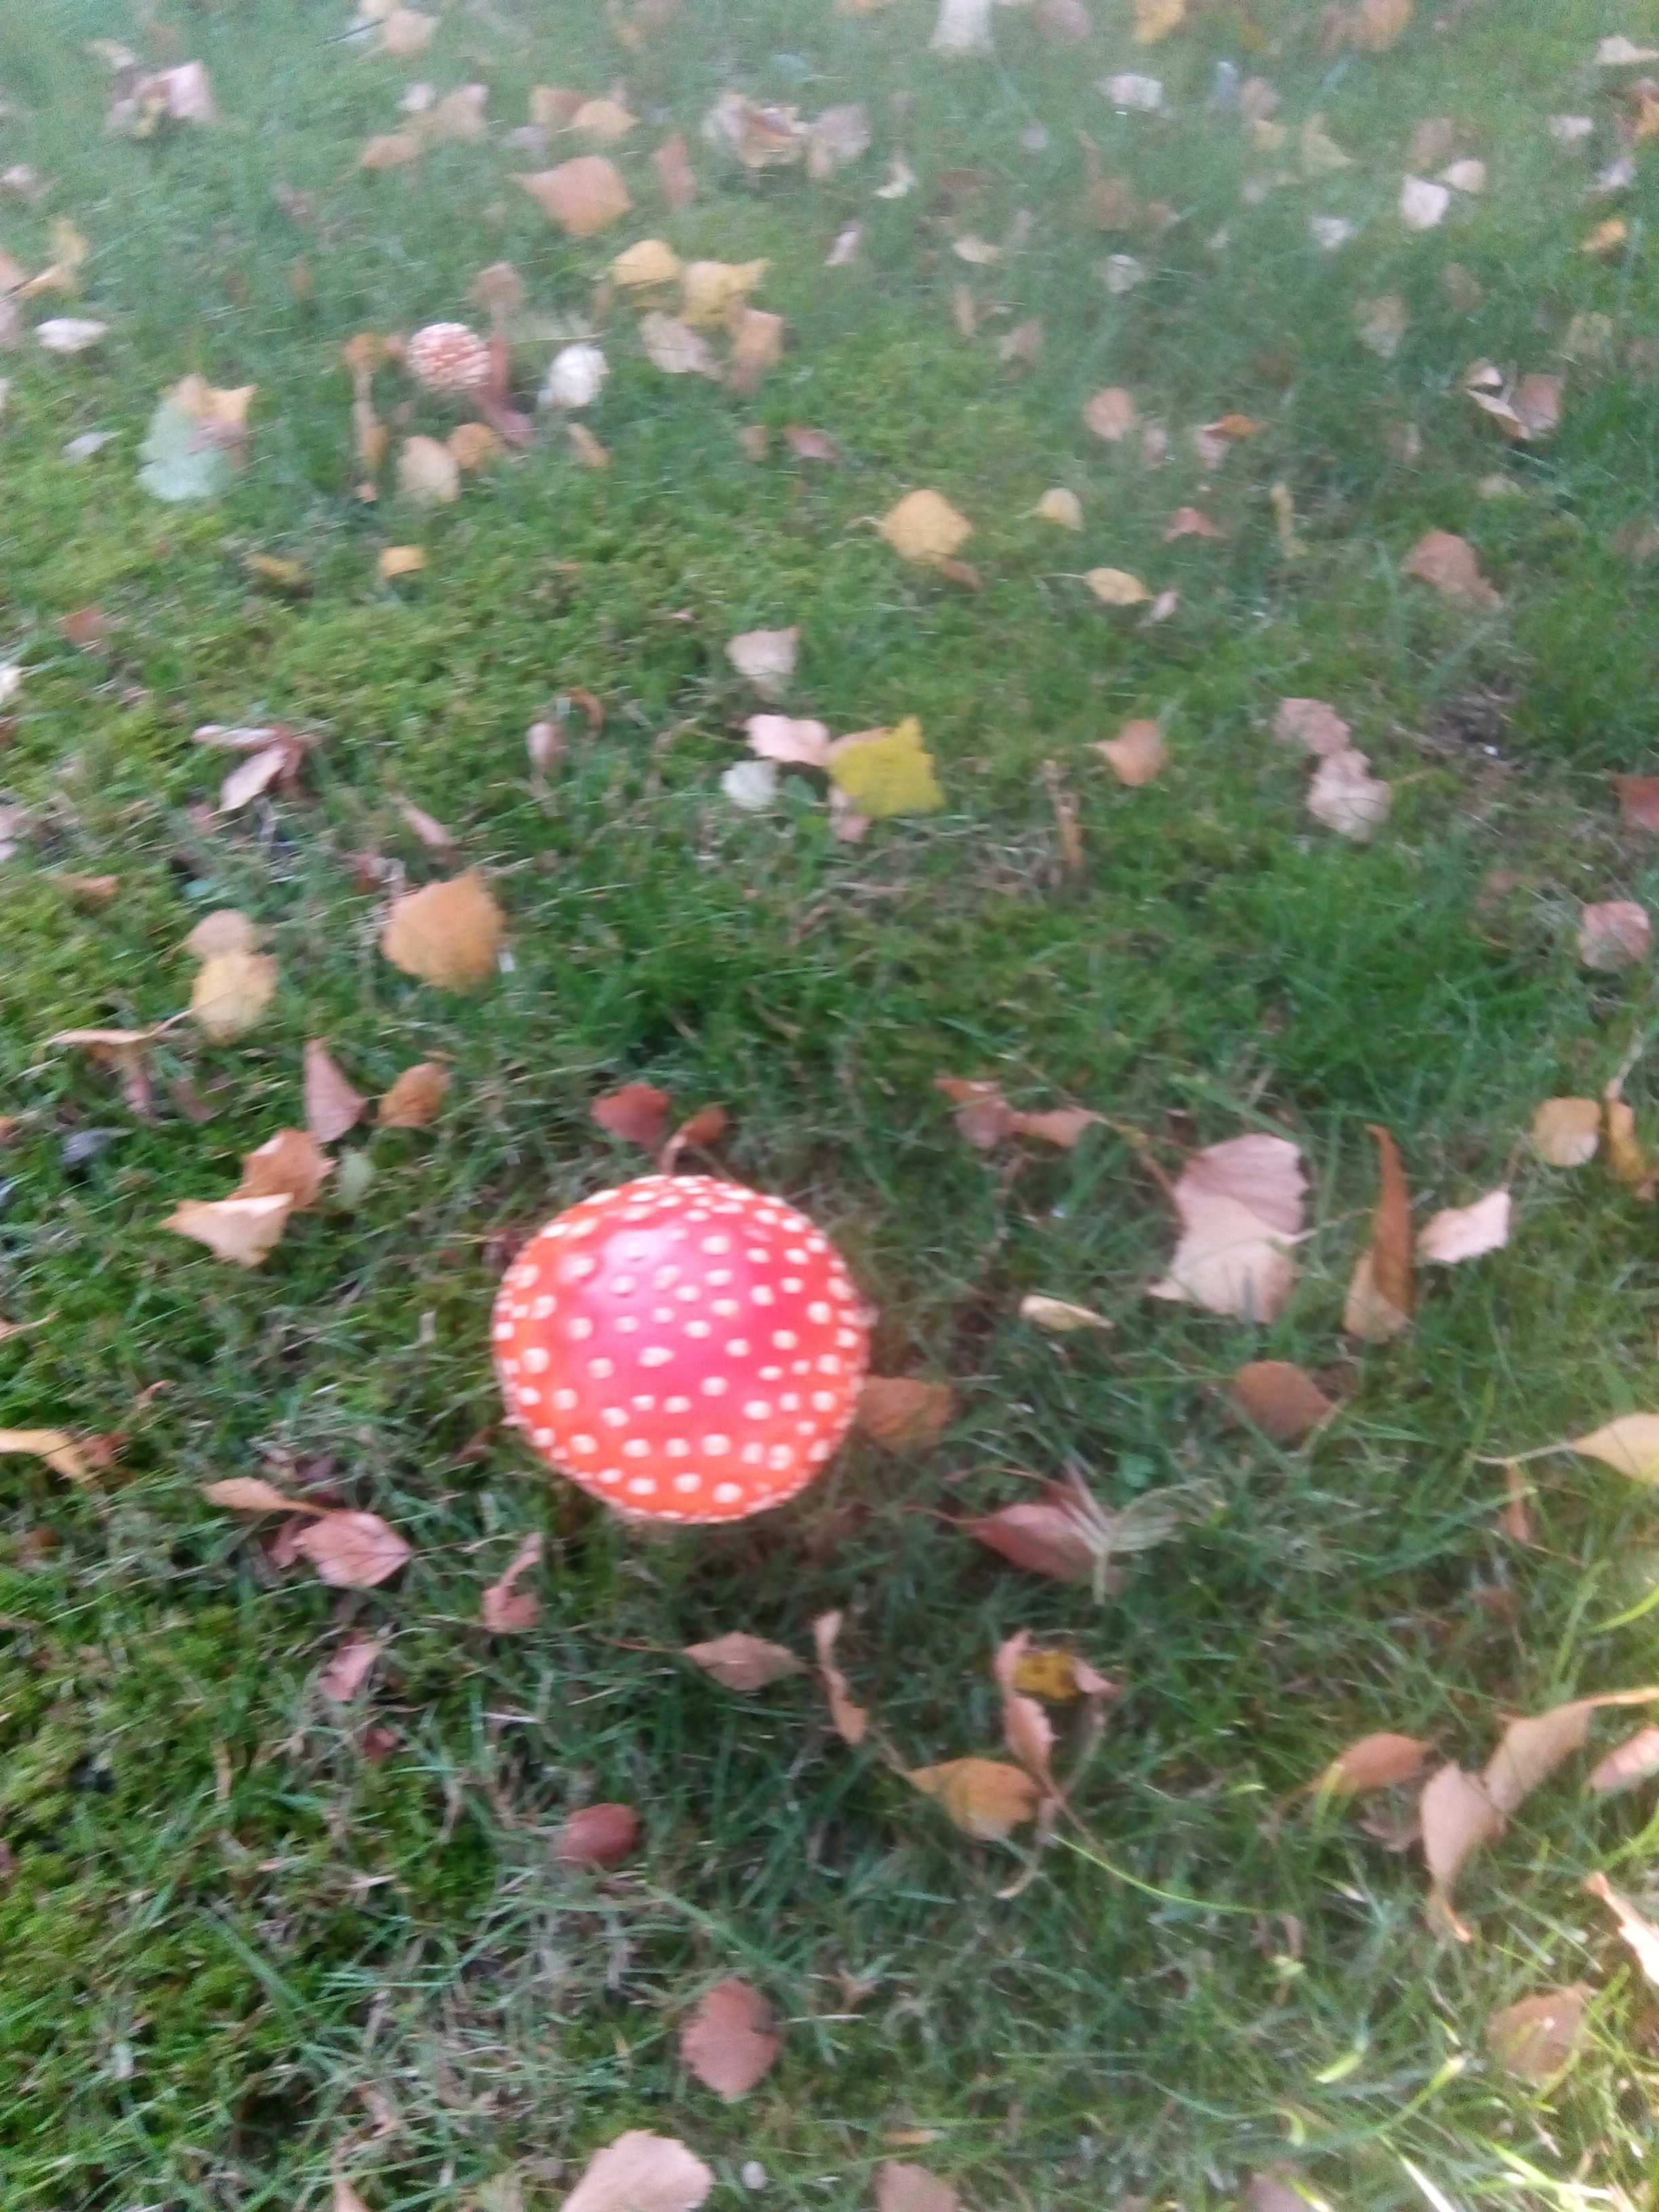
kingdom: Fungi
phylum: Basidiomycota
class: Agaricomycetes
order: Agaricales
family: Amanitaceae
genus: Amanita
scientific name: Amanita muscaria
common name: rød fluesvamp
